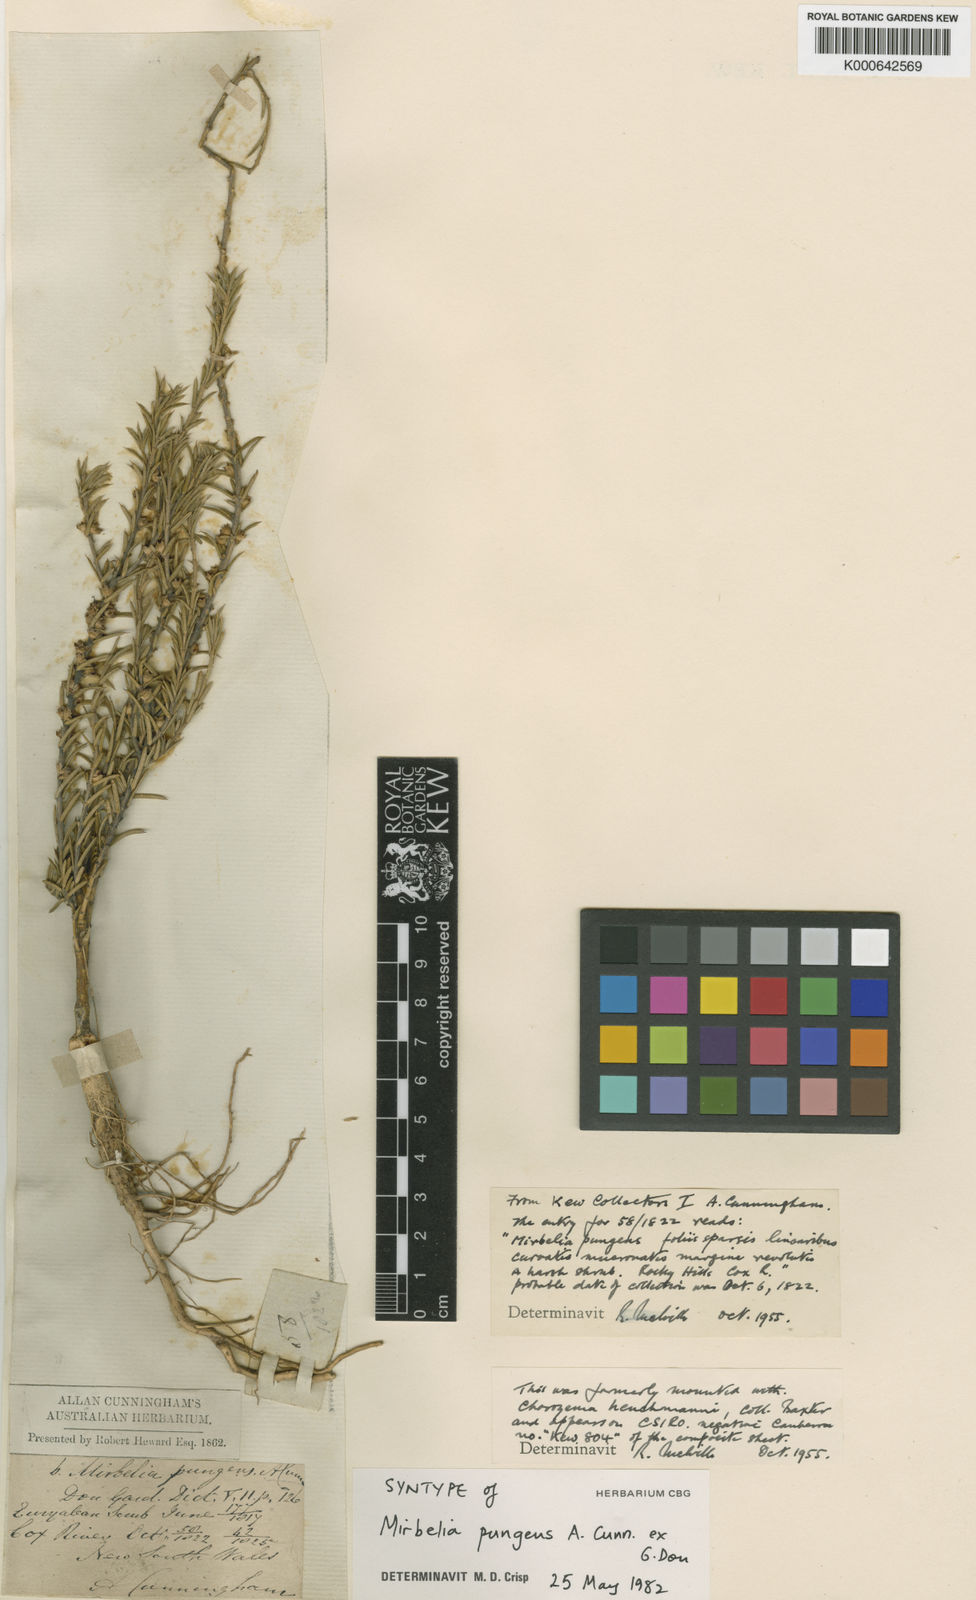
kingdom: Plantae
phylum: Tracheophyta
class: Magnoliopsida
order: Fabales
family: Fabaceae
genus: Mirbelia
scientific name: Mirbelia pungens
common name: Prickly mirbelia
